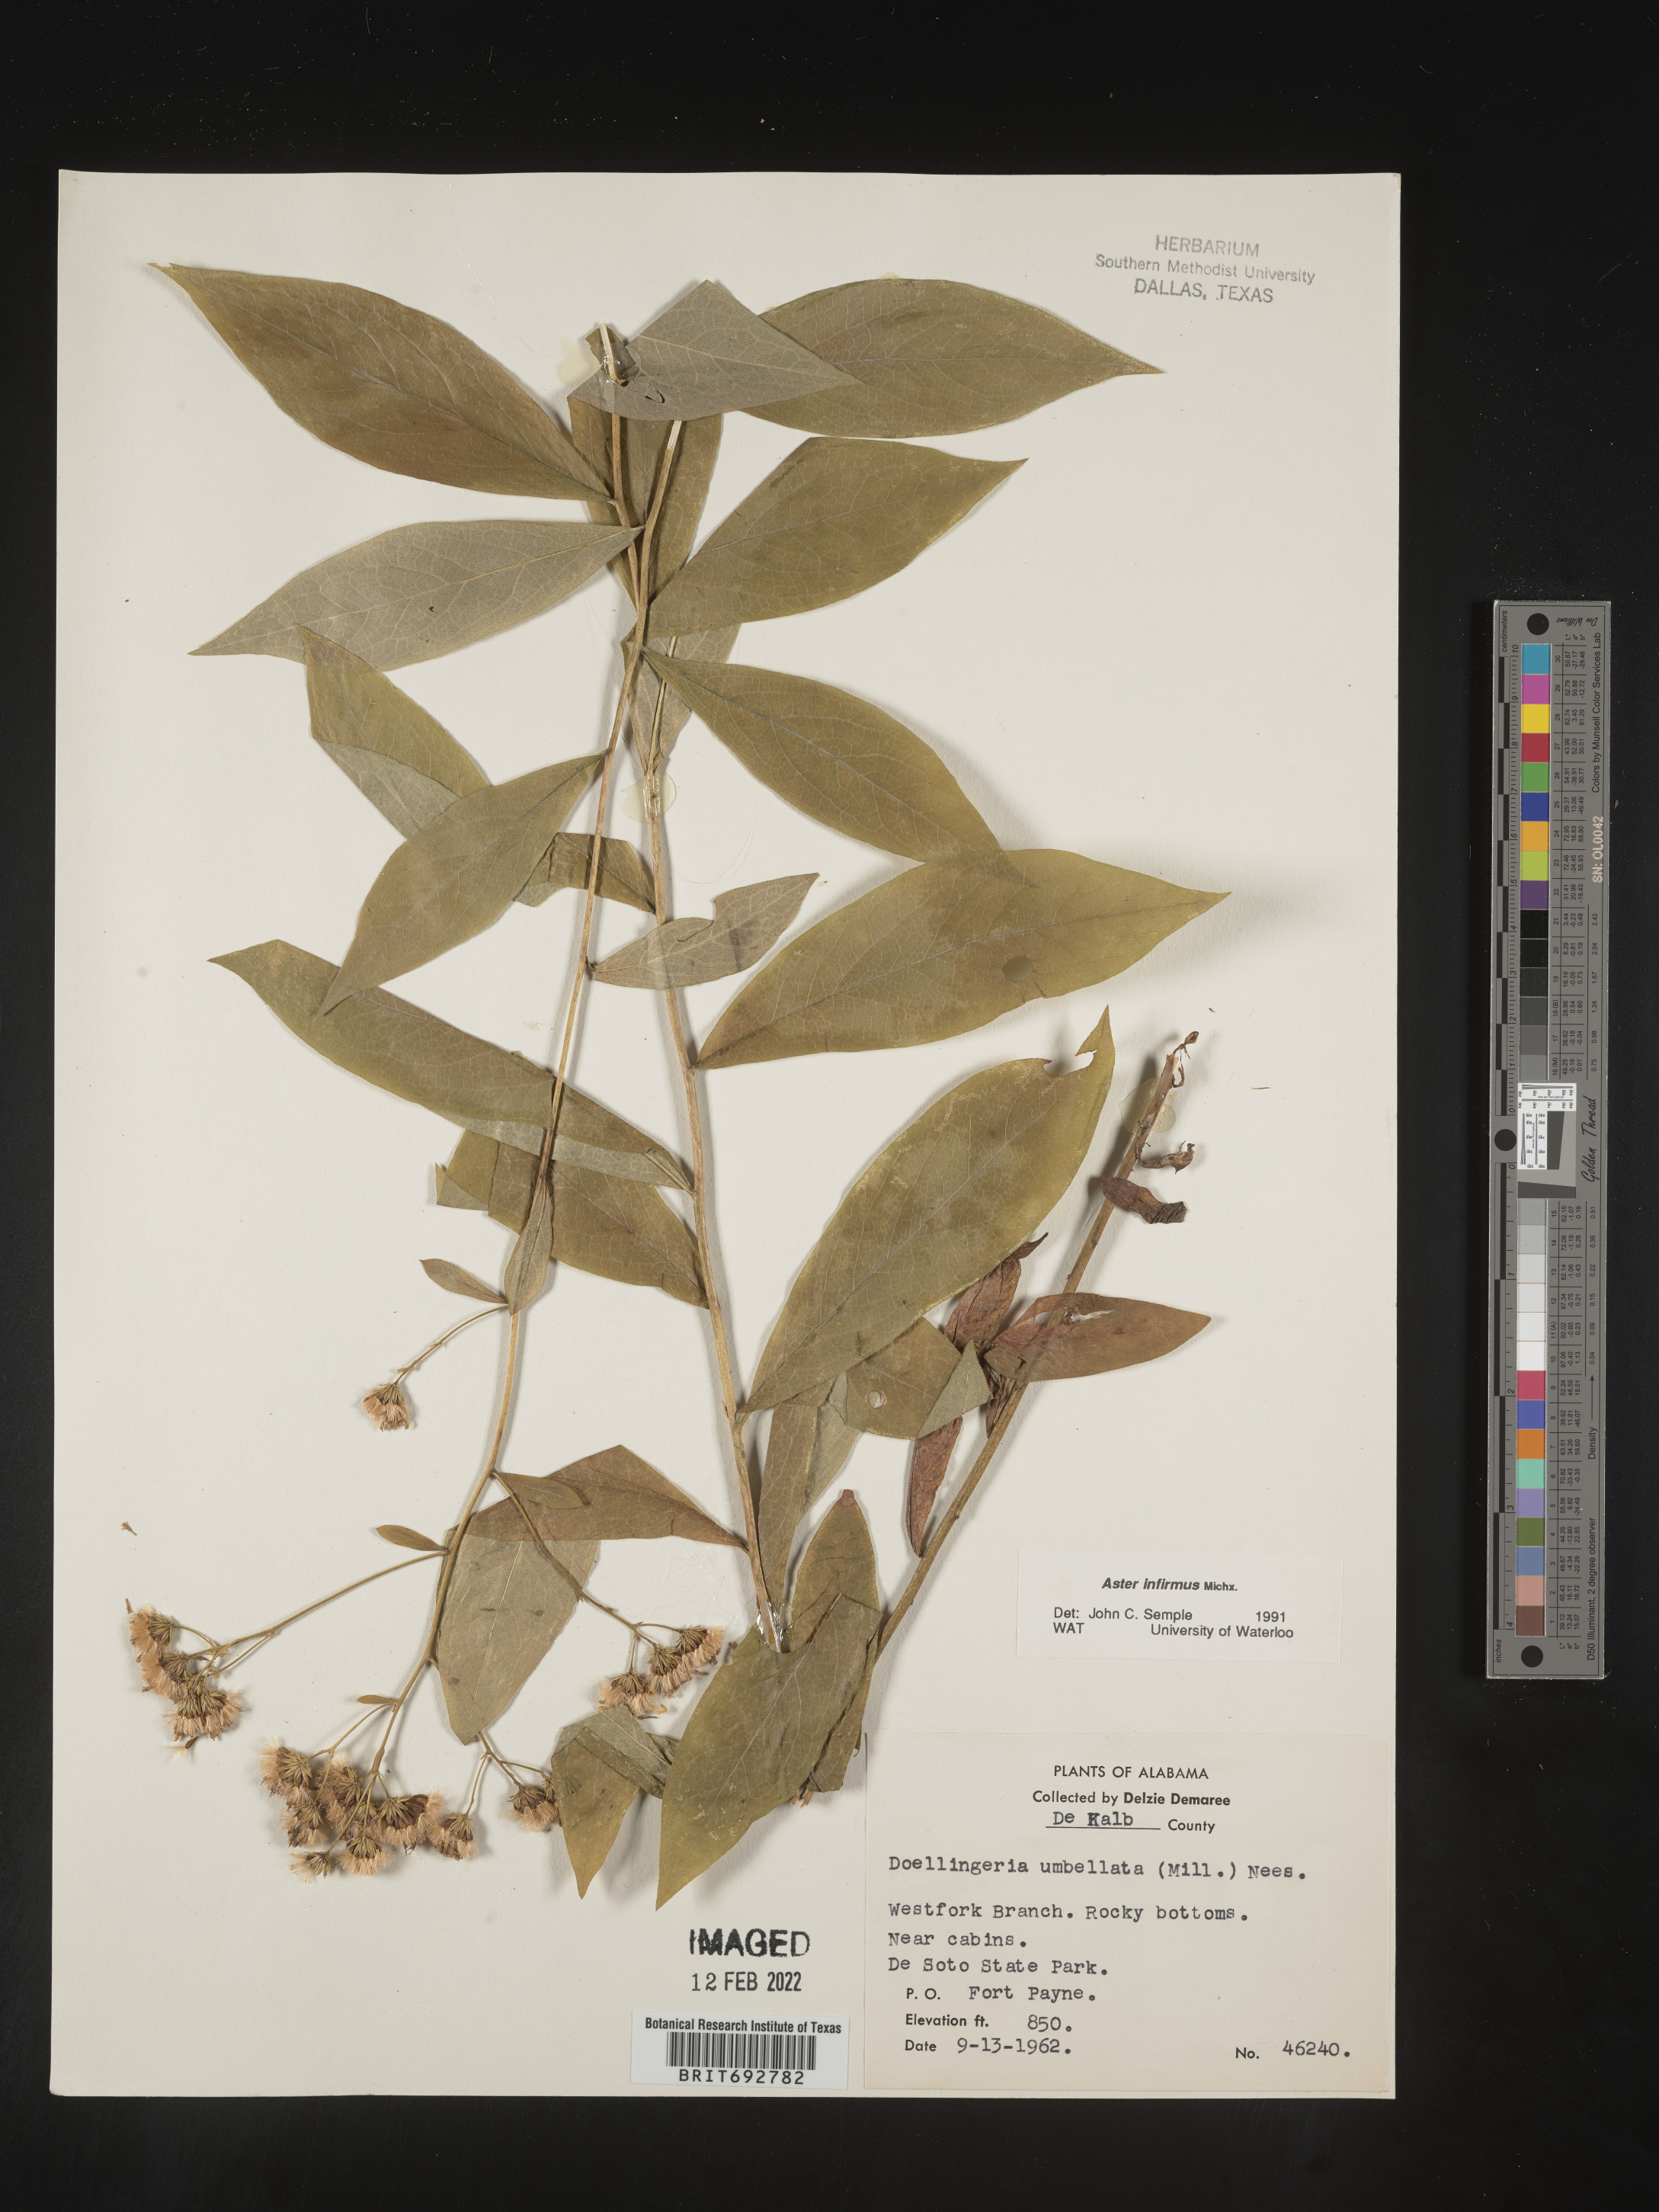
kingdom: Plantae
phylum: Tracheophyta
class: Magnoliopsida
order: Asterales
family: Asteraceae
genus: Doellingeria
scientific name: Doellingeria infirma
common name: Appalachian flat-top aster
